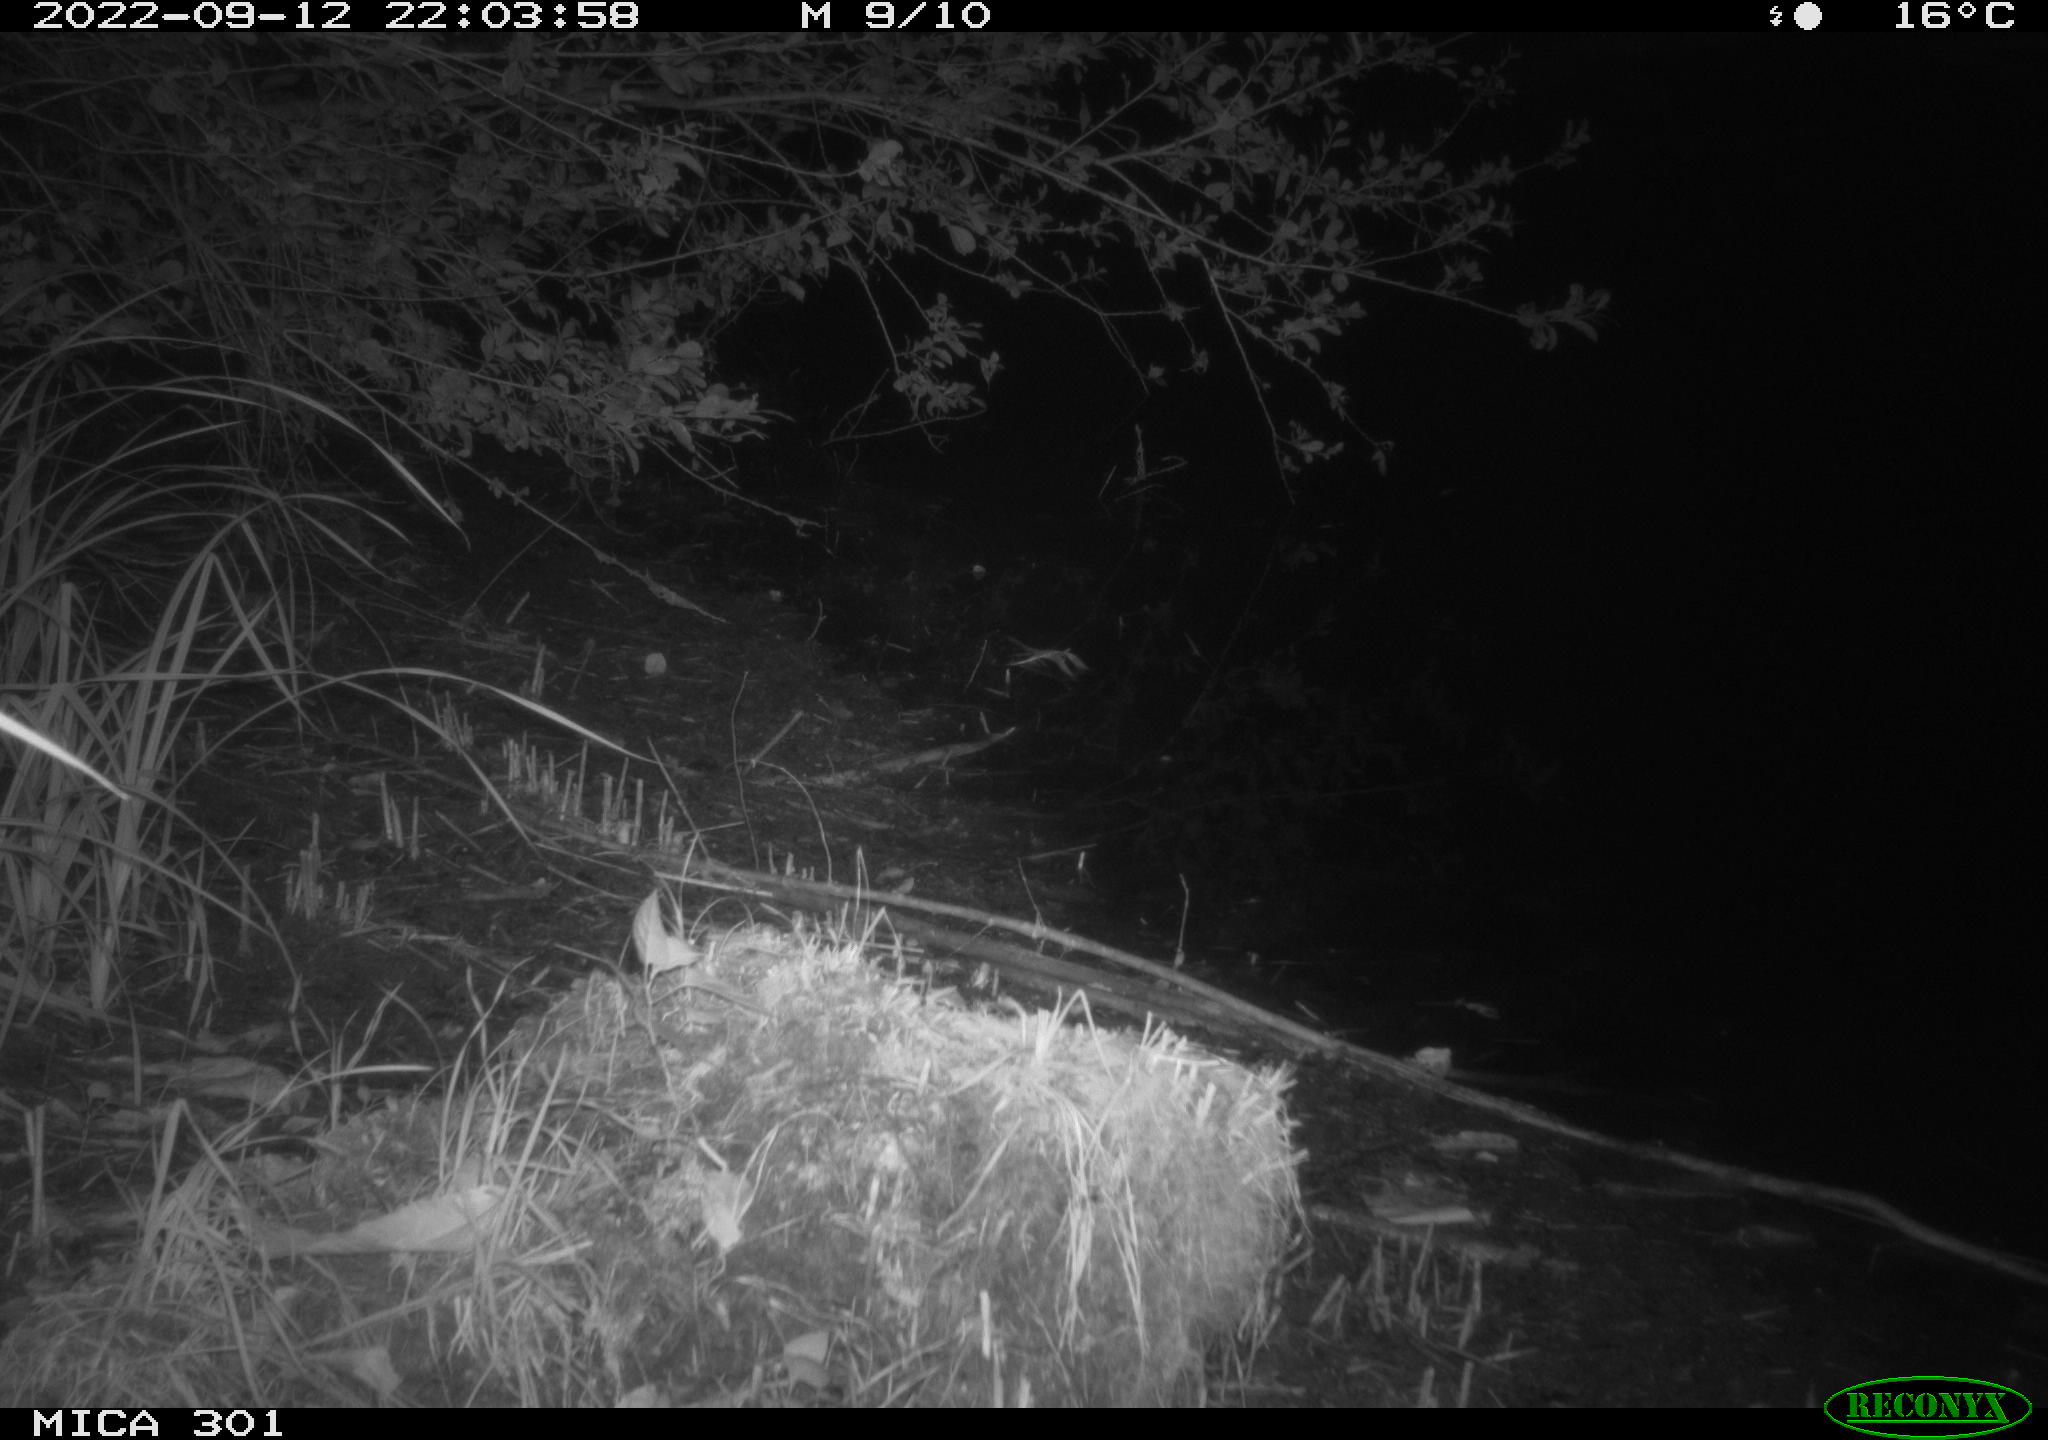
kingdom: Animalia
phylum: Chordata
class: Mammalia
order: Carnivora
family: Canidae
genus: Vulpes
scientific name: Vulpes vulpes
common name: Red fox
